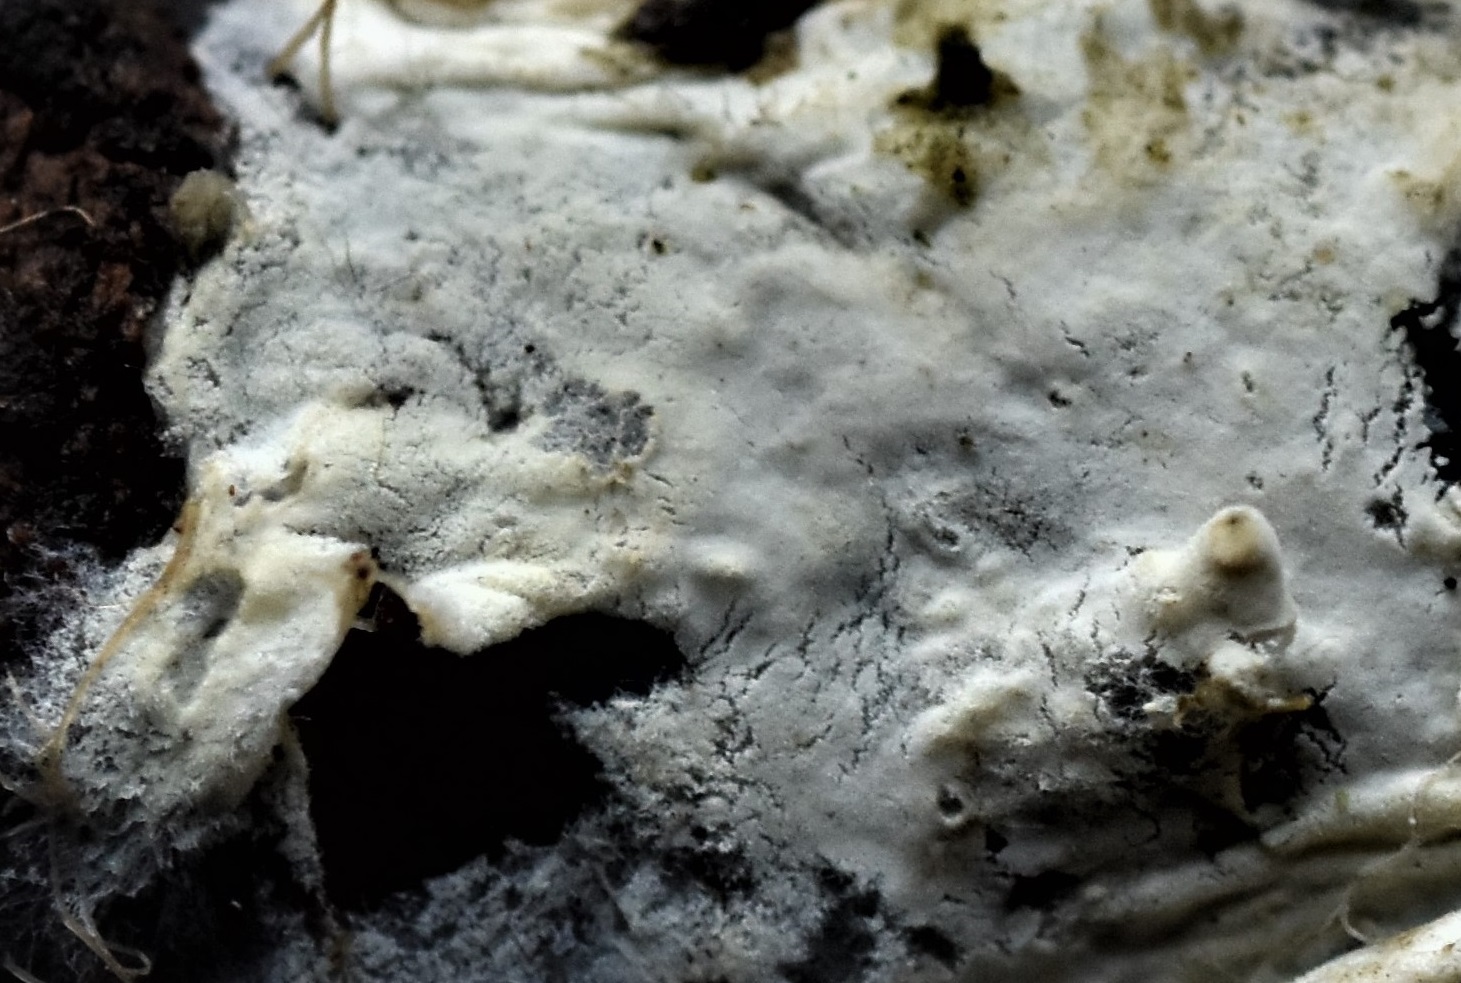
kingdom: Fungi
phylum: Basidiomycota
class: Agaricomycetes
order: Atheliales
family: Atheliaceae
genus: Amphinema
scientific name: Amphinema byssoides
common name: almindelig rodhinde
